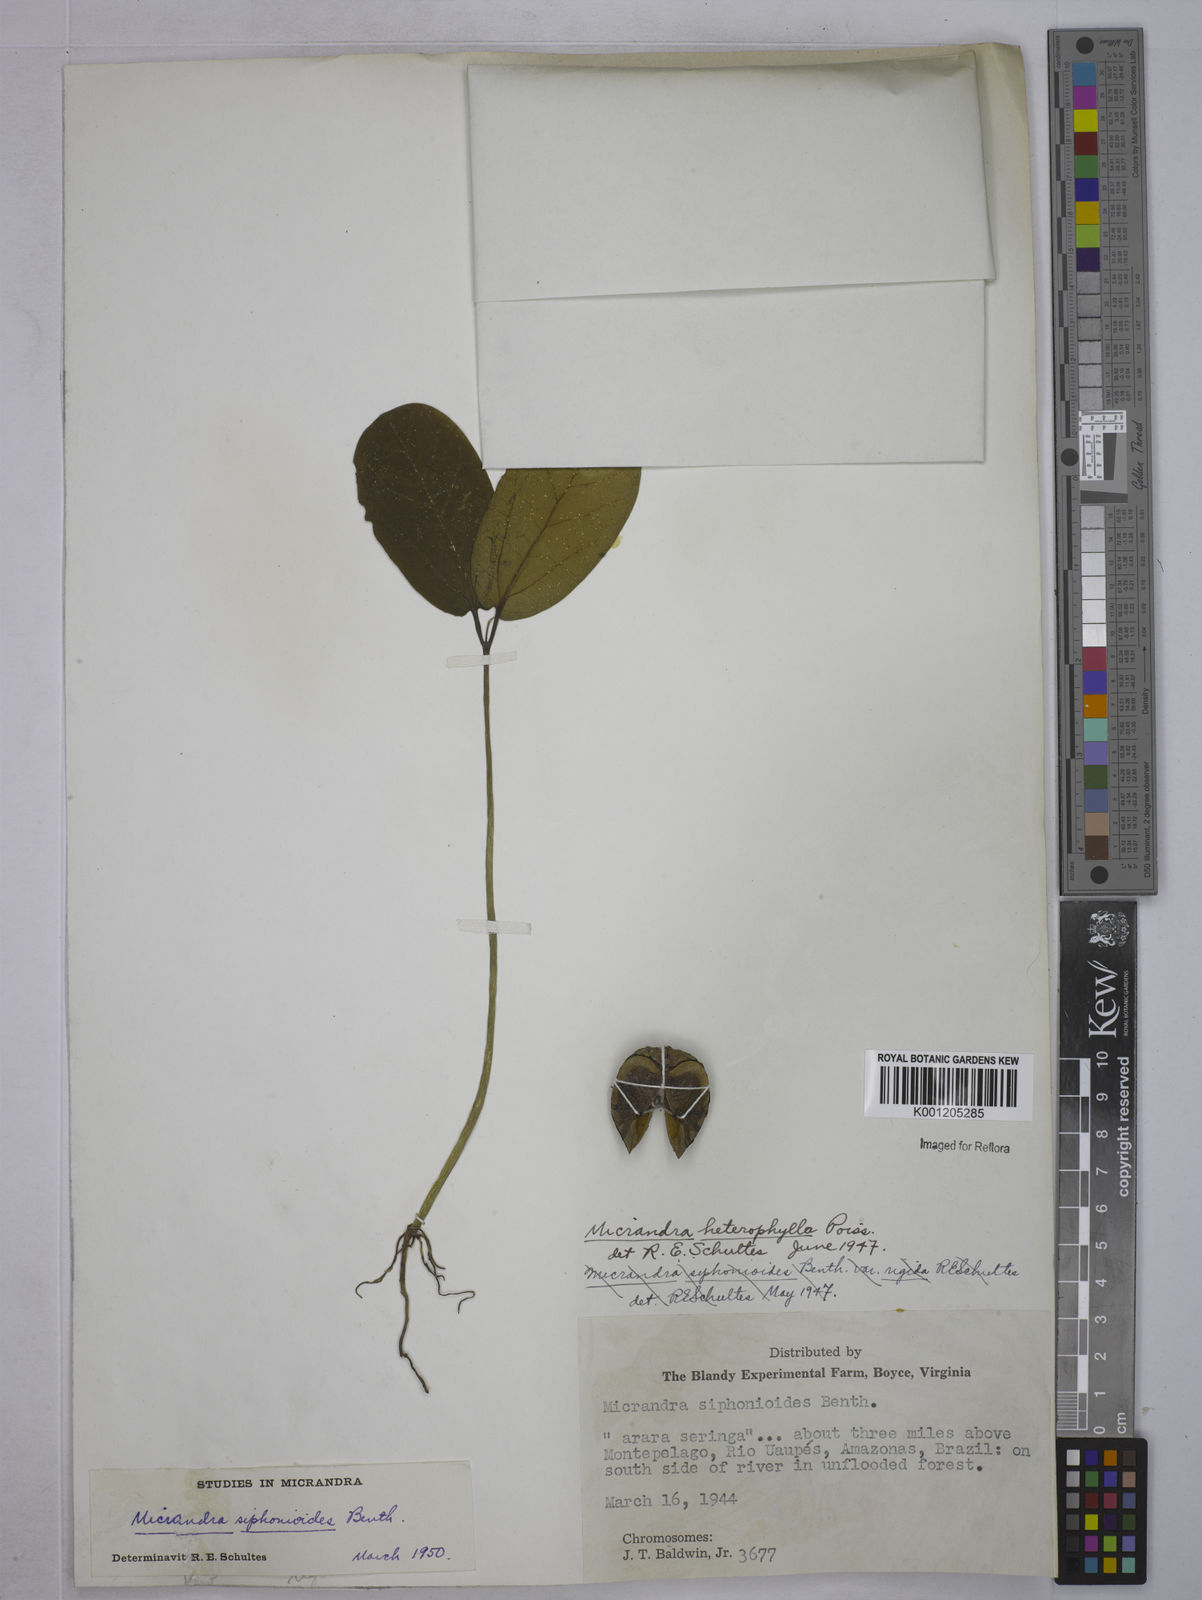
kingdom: Plantae
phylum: Tracheophyta
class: Magnoliopsida
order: Malpighiales
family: Euphorbiaceae
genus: Micrandra
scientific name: Micrandra siphonioides
